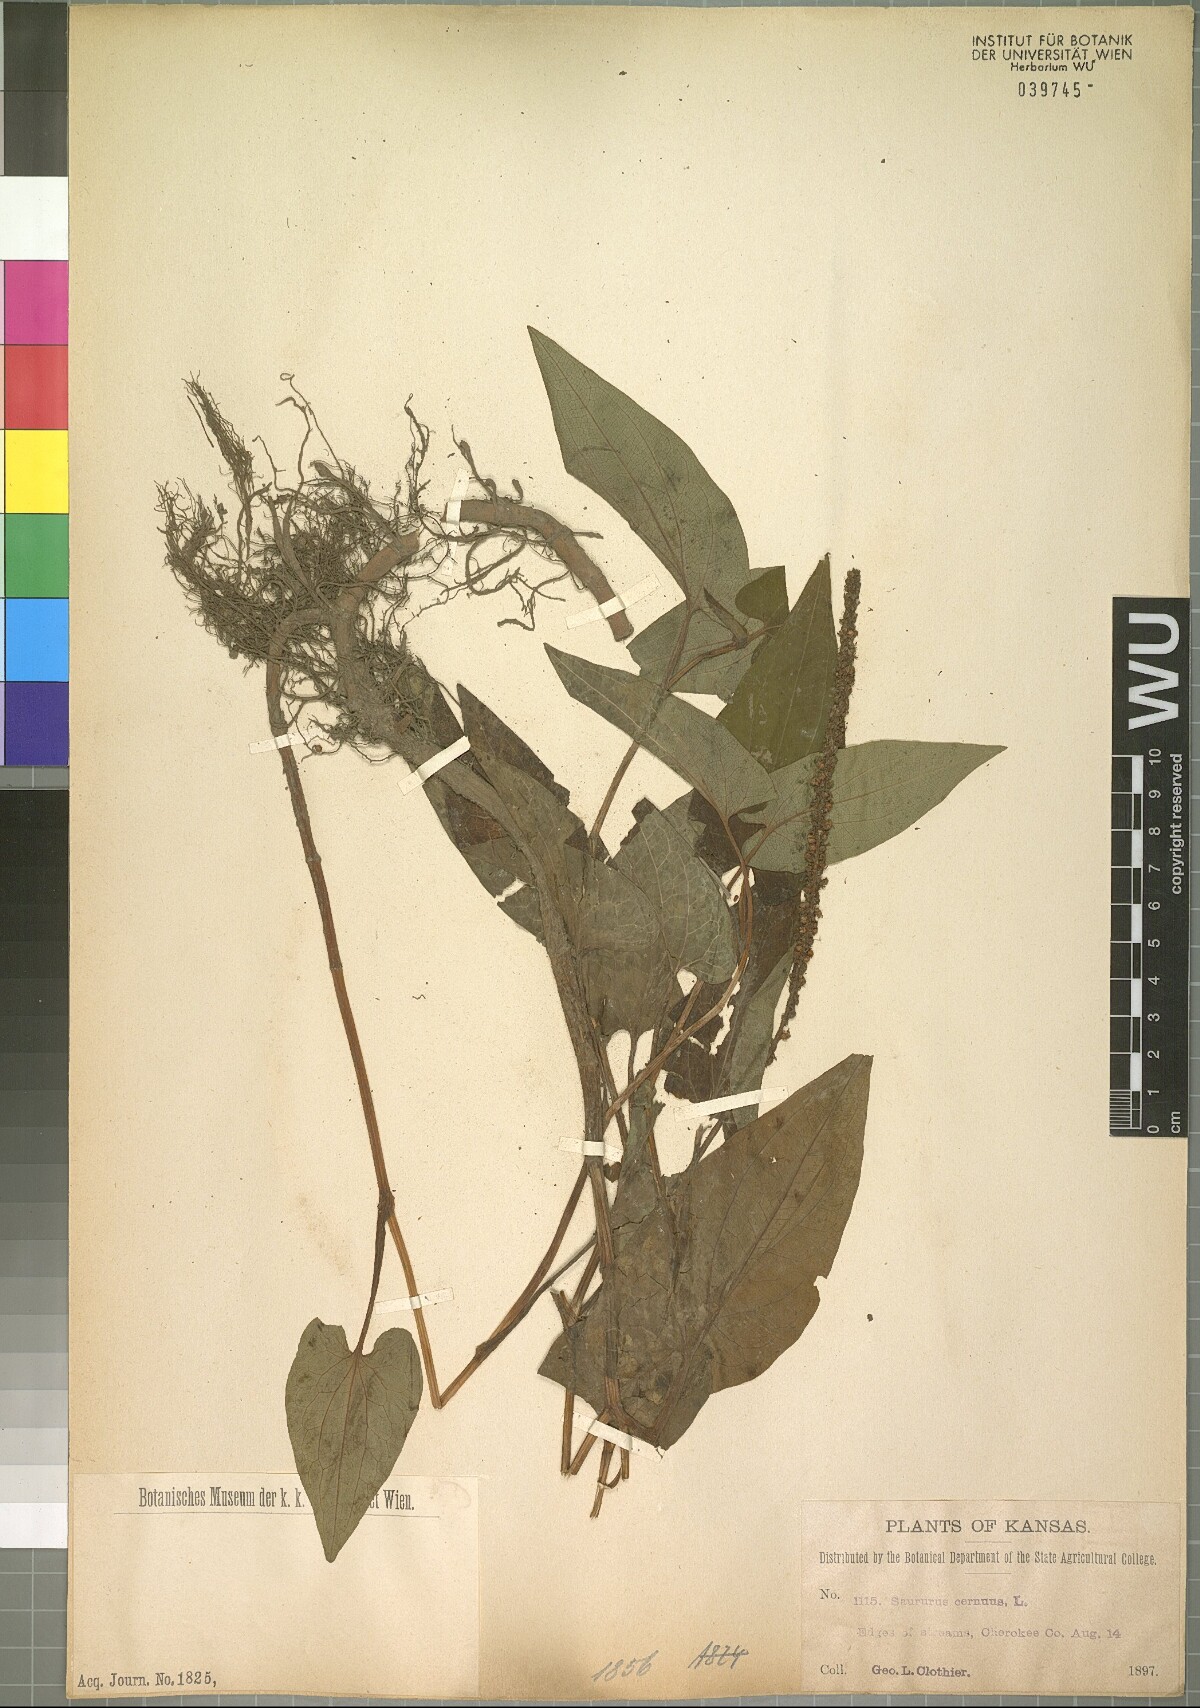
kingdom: Plantae
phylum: Tracheophyta
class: Magnoliopsida
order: Piperales
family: Saururaceae
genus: Saururus
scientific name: Saururus cernuus
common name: Lizard's-tail
